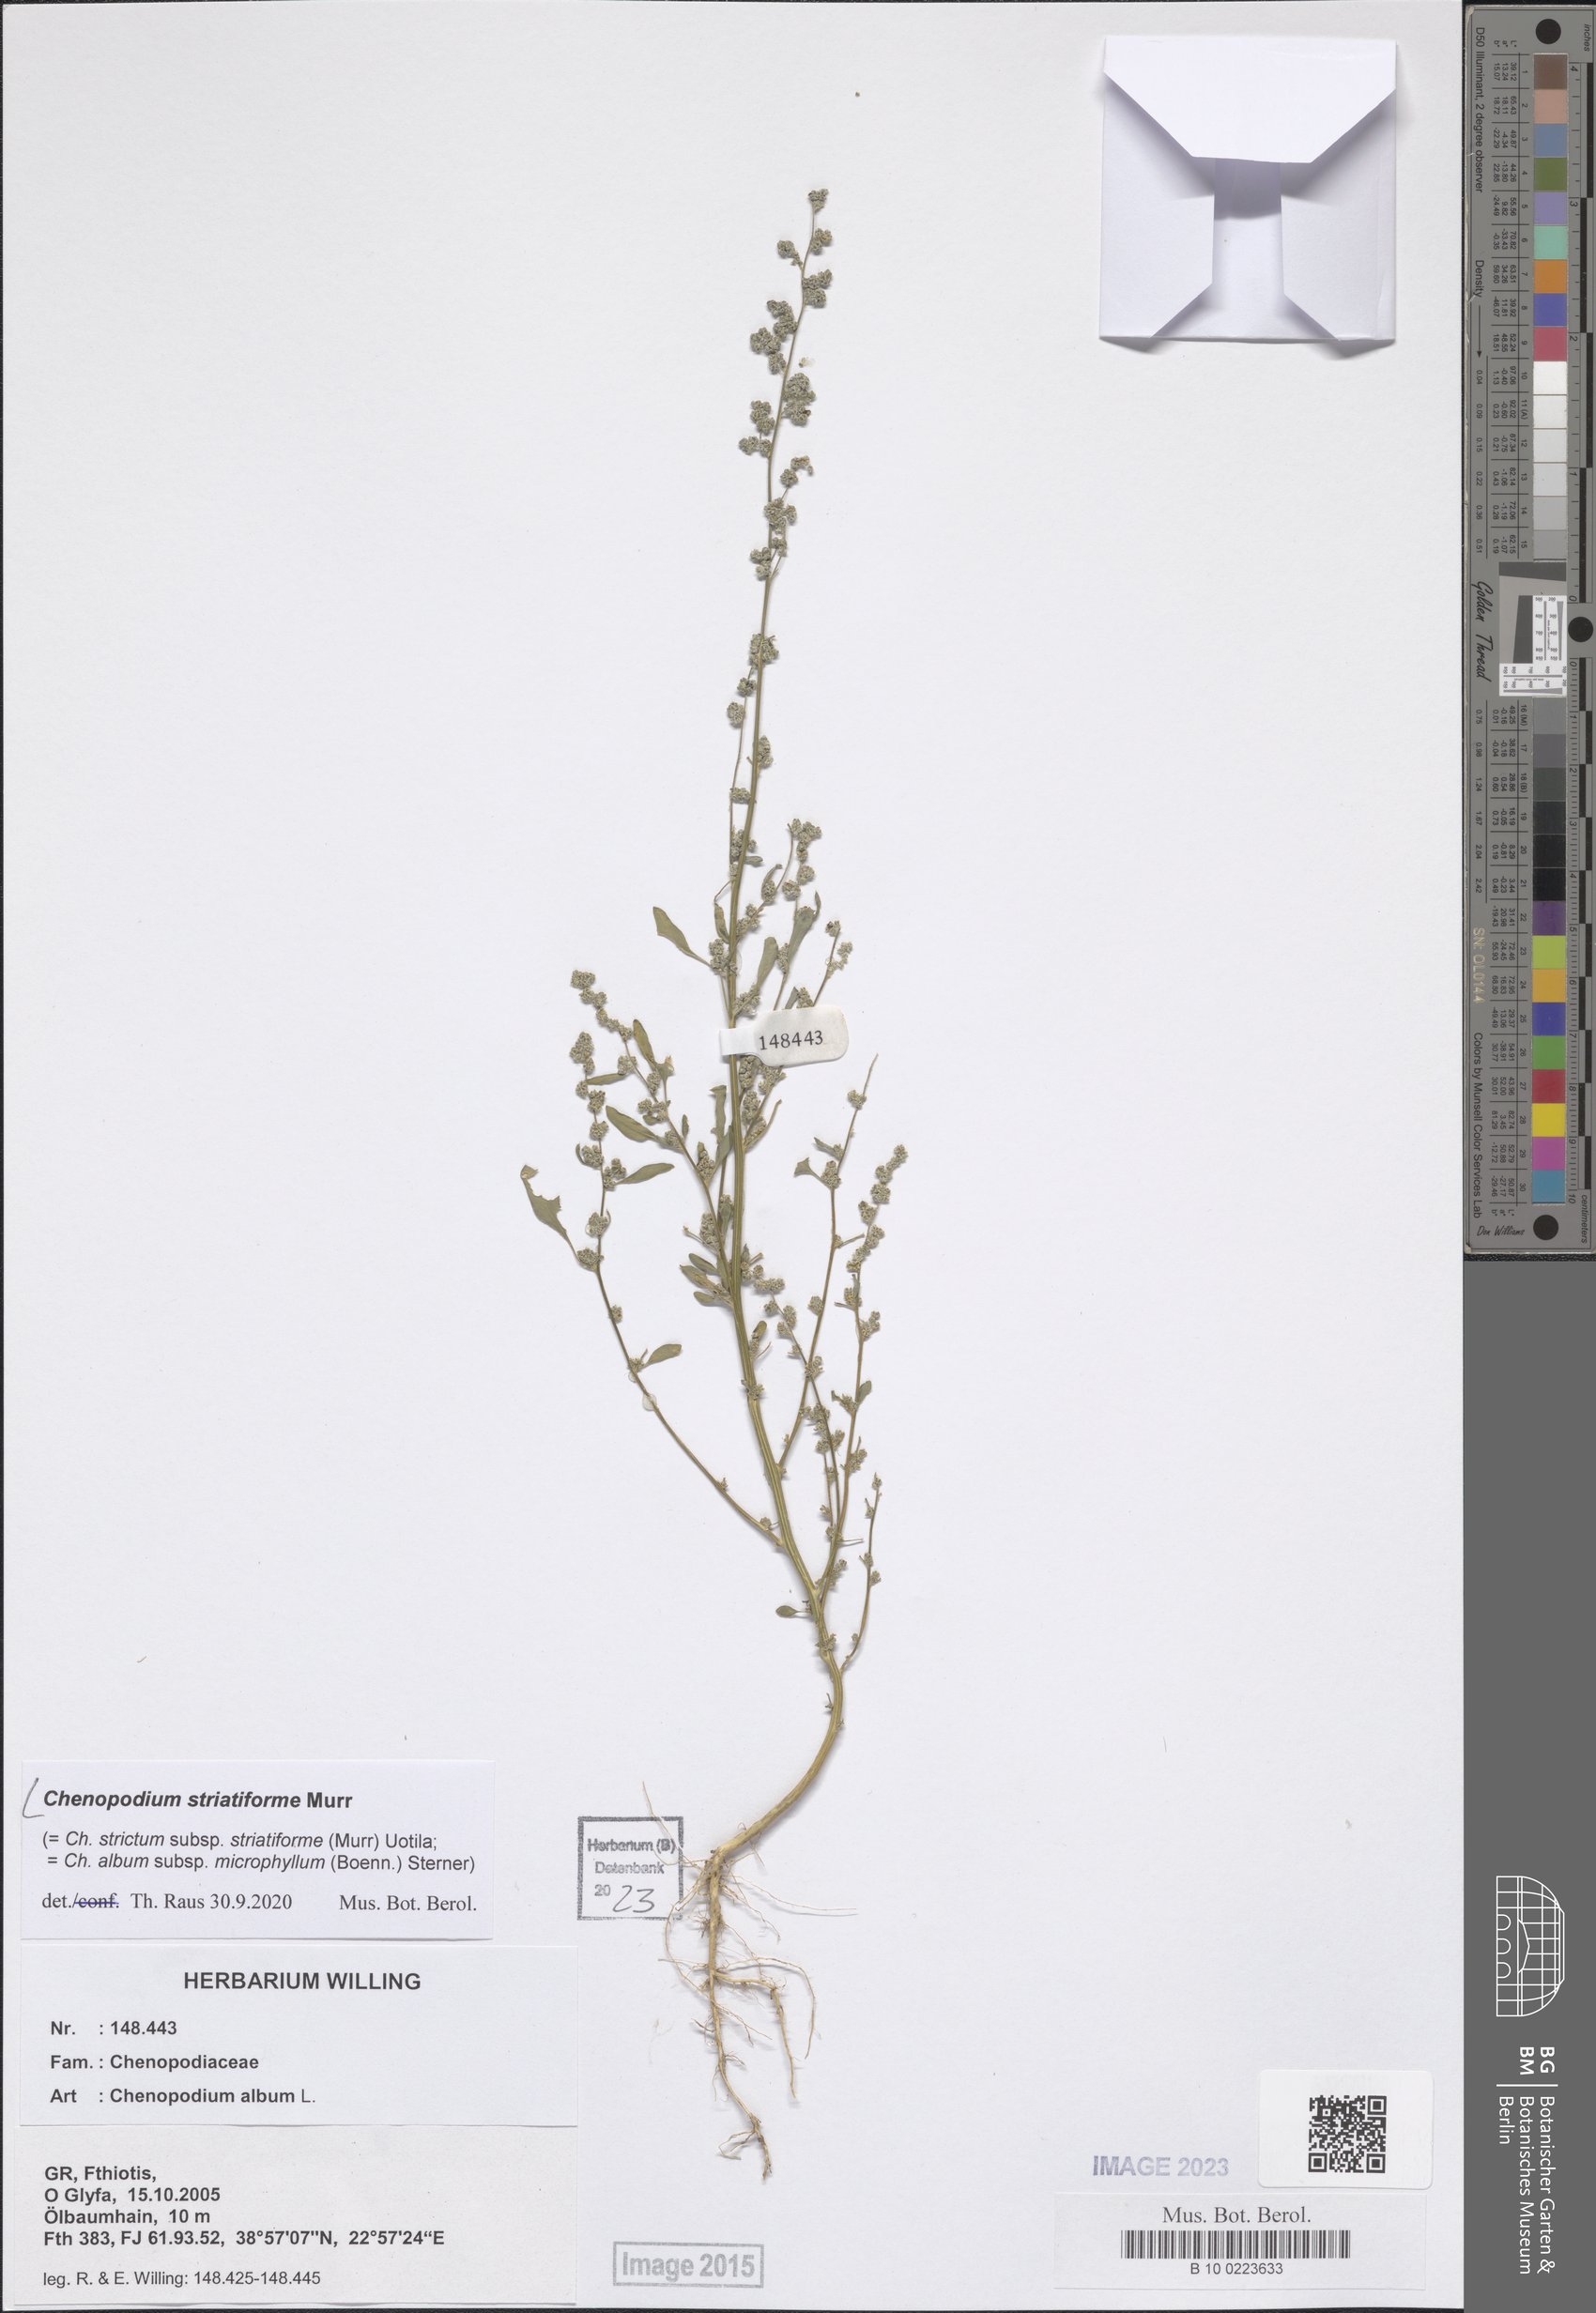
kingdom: Plantae
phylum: Tracheophyta
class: Magnoliopsida
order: Caryophyllales
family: Amaranthaceae
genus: Chenopodium
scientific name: Chenopodium striatiforme
